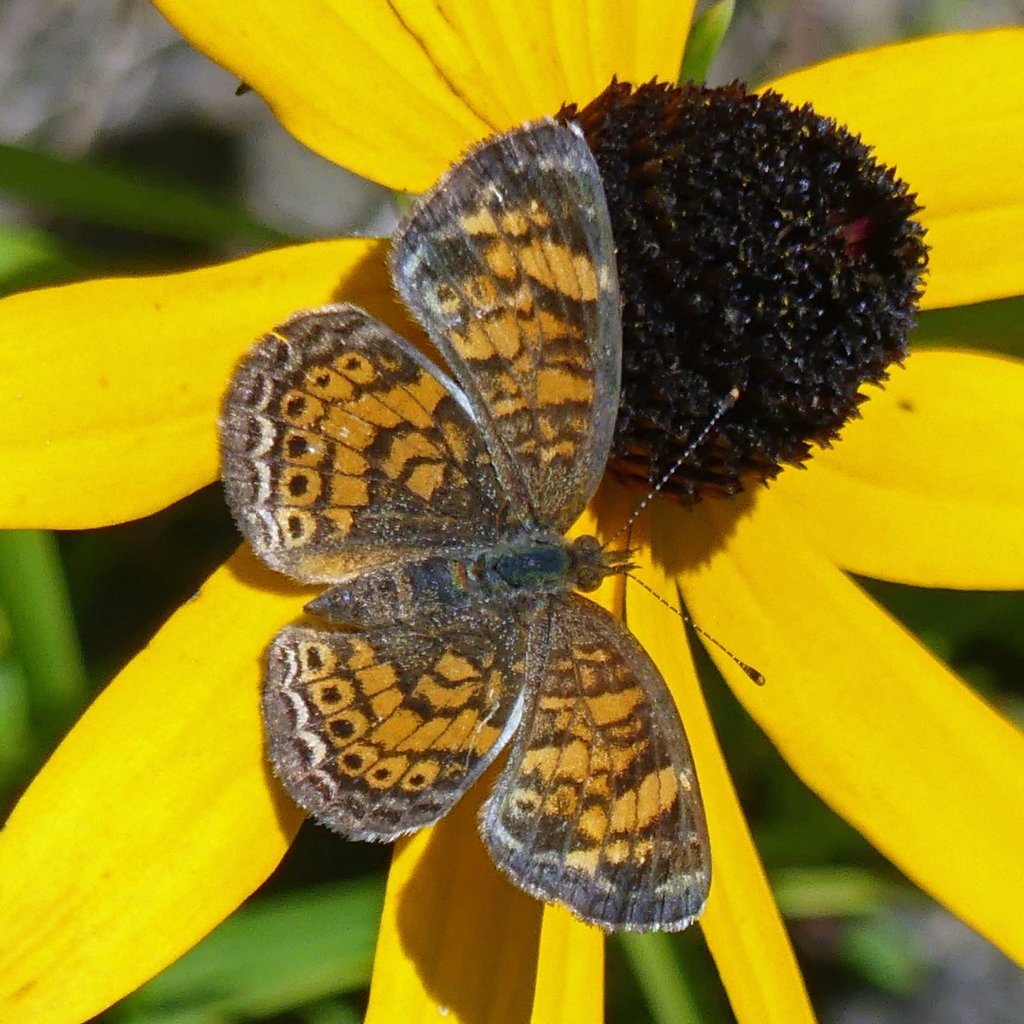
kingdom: Animalia
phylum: Arthropoda
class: Insecta
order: Lepidoptera
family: Nymphalidae
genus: Phyciodes
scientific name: Phyciodes tharos
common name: Pearl Crescent
